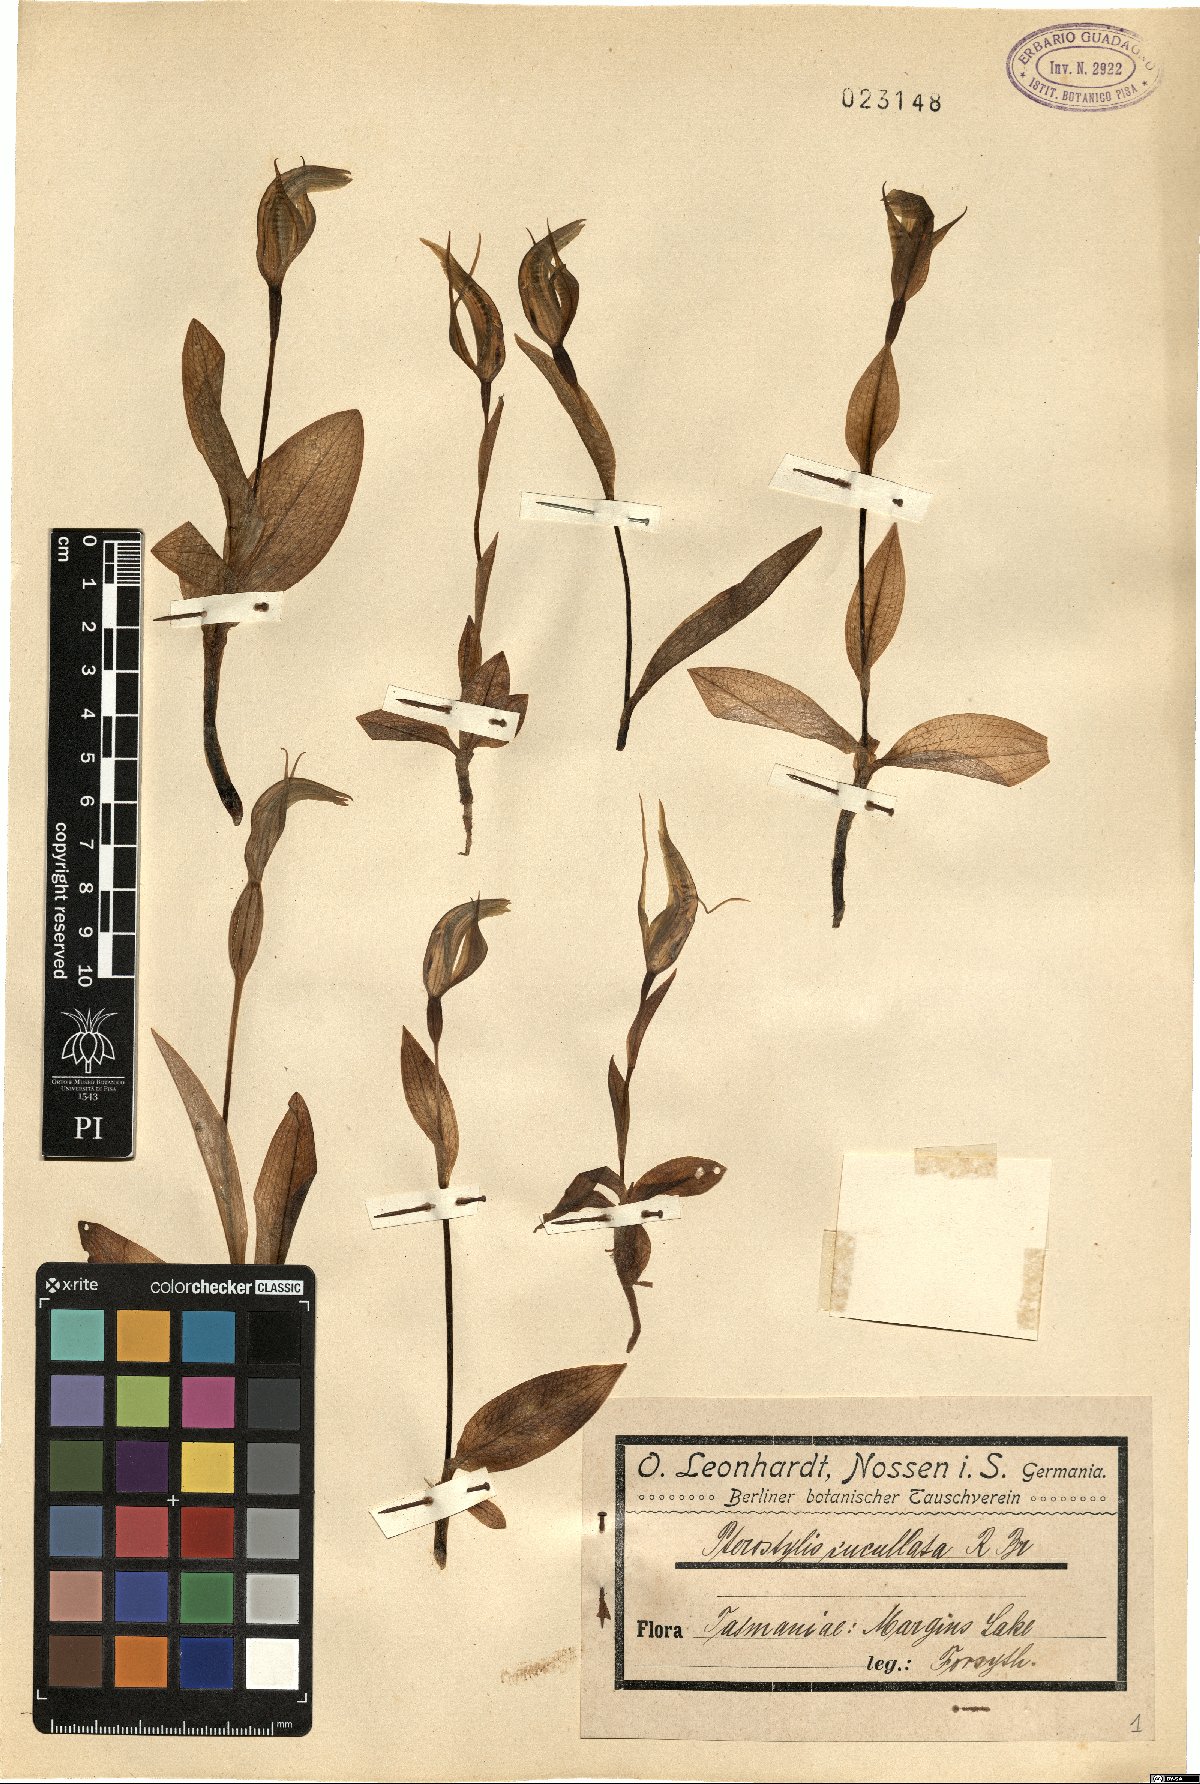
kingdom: Plantae
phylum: Tracheophyta
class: Liliopsida
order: Asparagales
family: Orchidaceae
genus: Pterostylis
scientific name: Pterostylis cucullata
